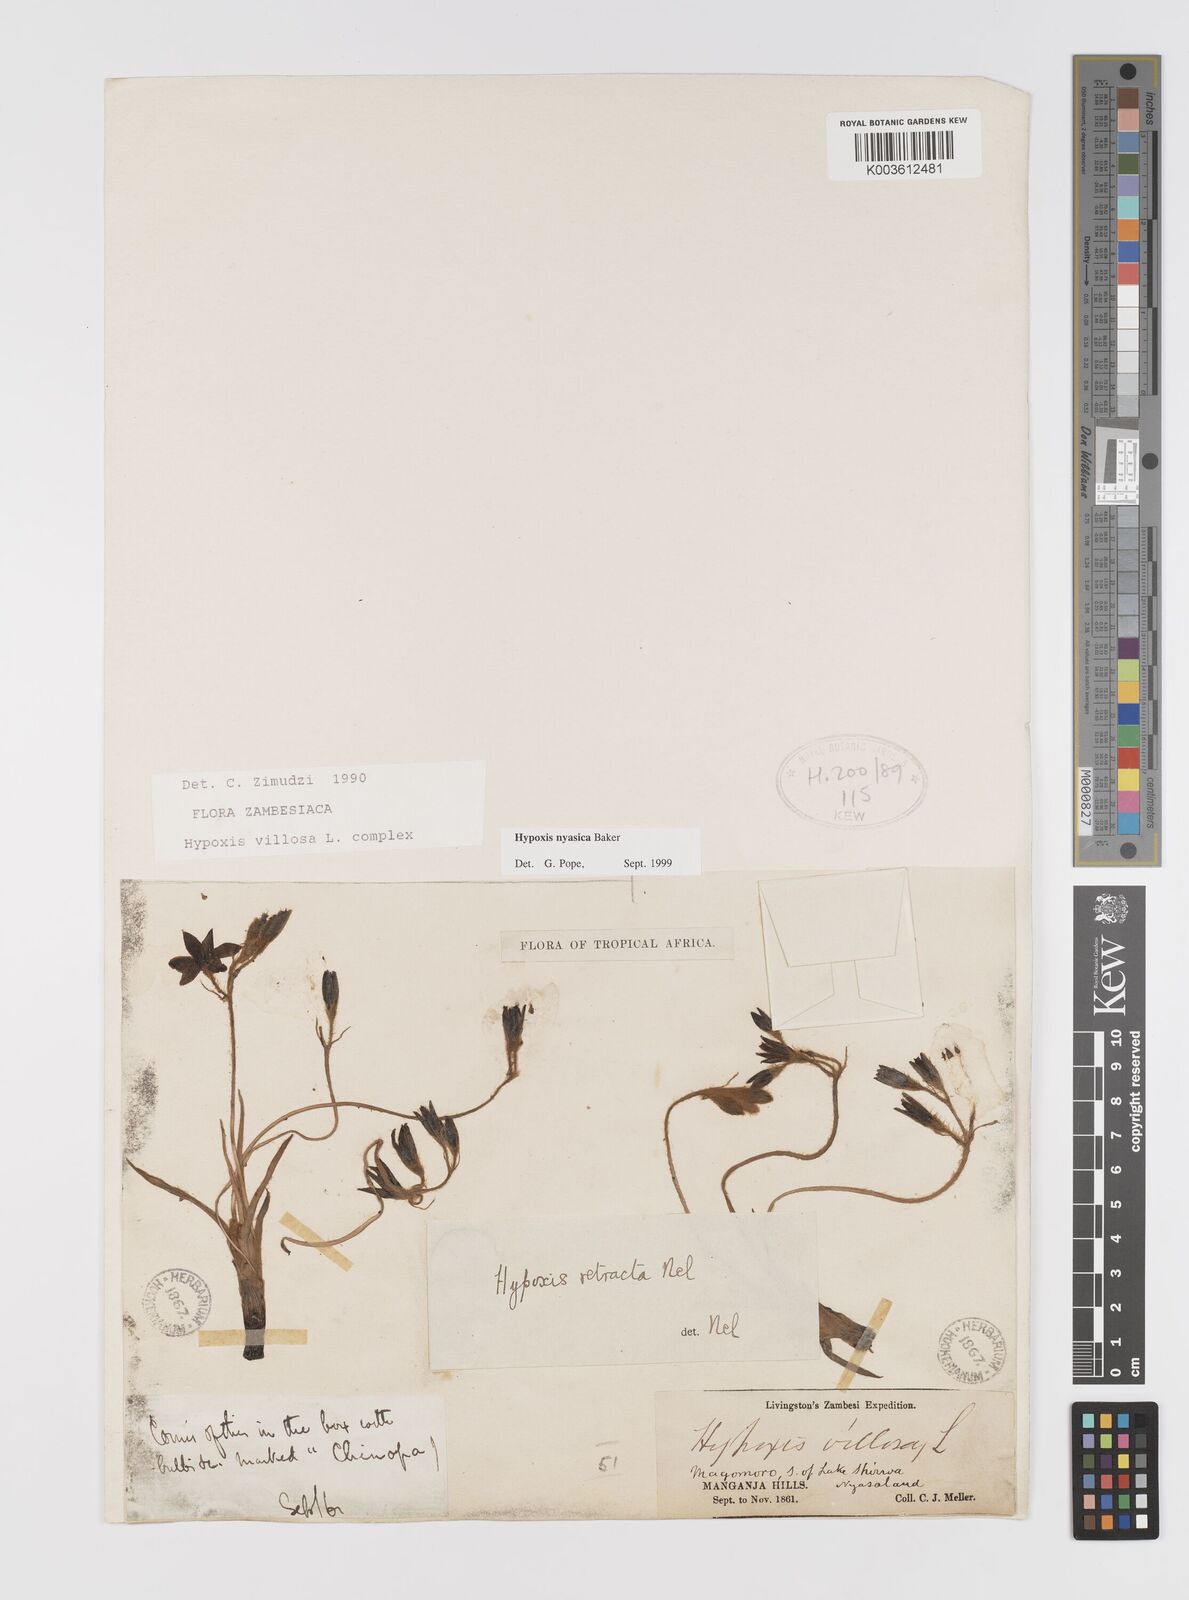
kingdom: Plantae
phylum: Tracheophyta
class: Liliopsida
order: Asparagales
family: Hypoxidaceae
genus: Hypoxis
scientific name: Hypoxis nyasica
